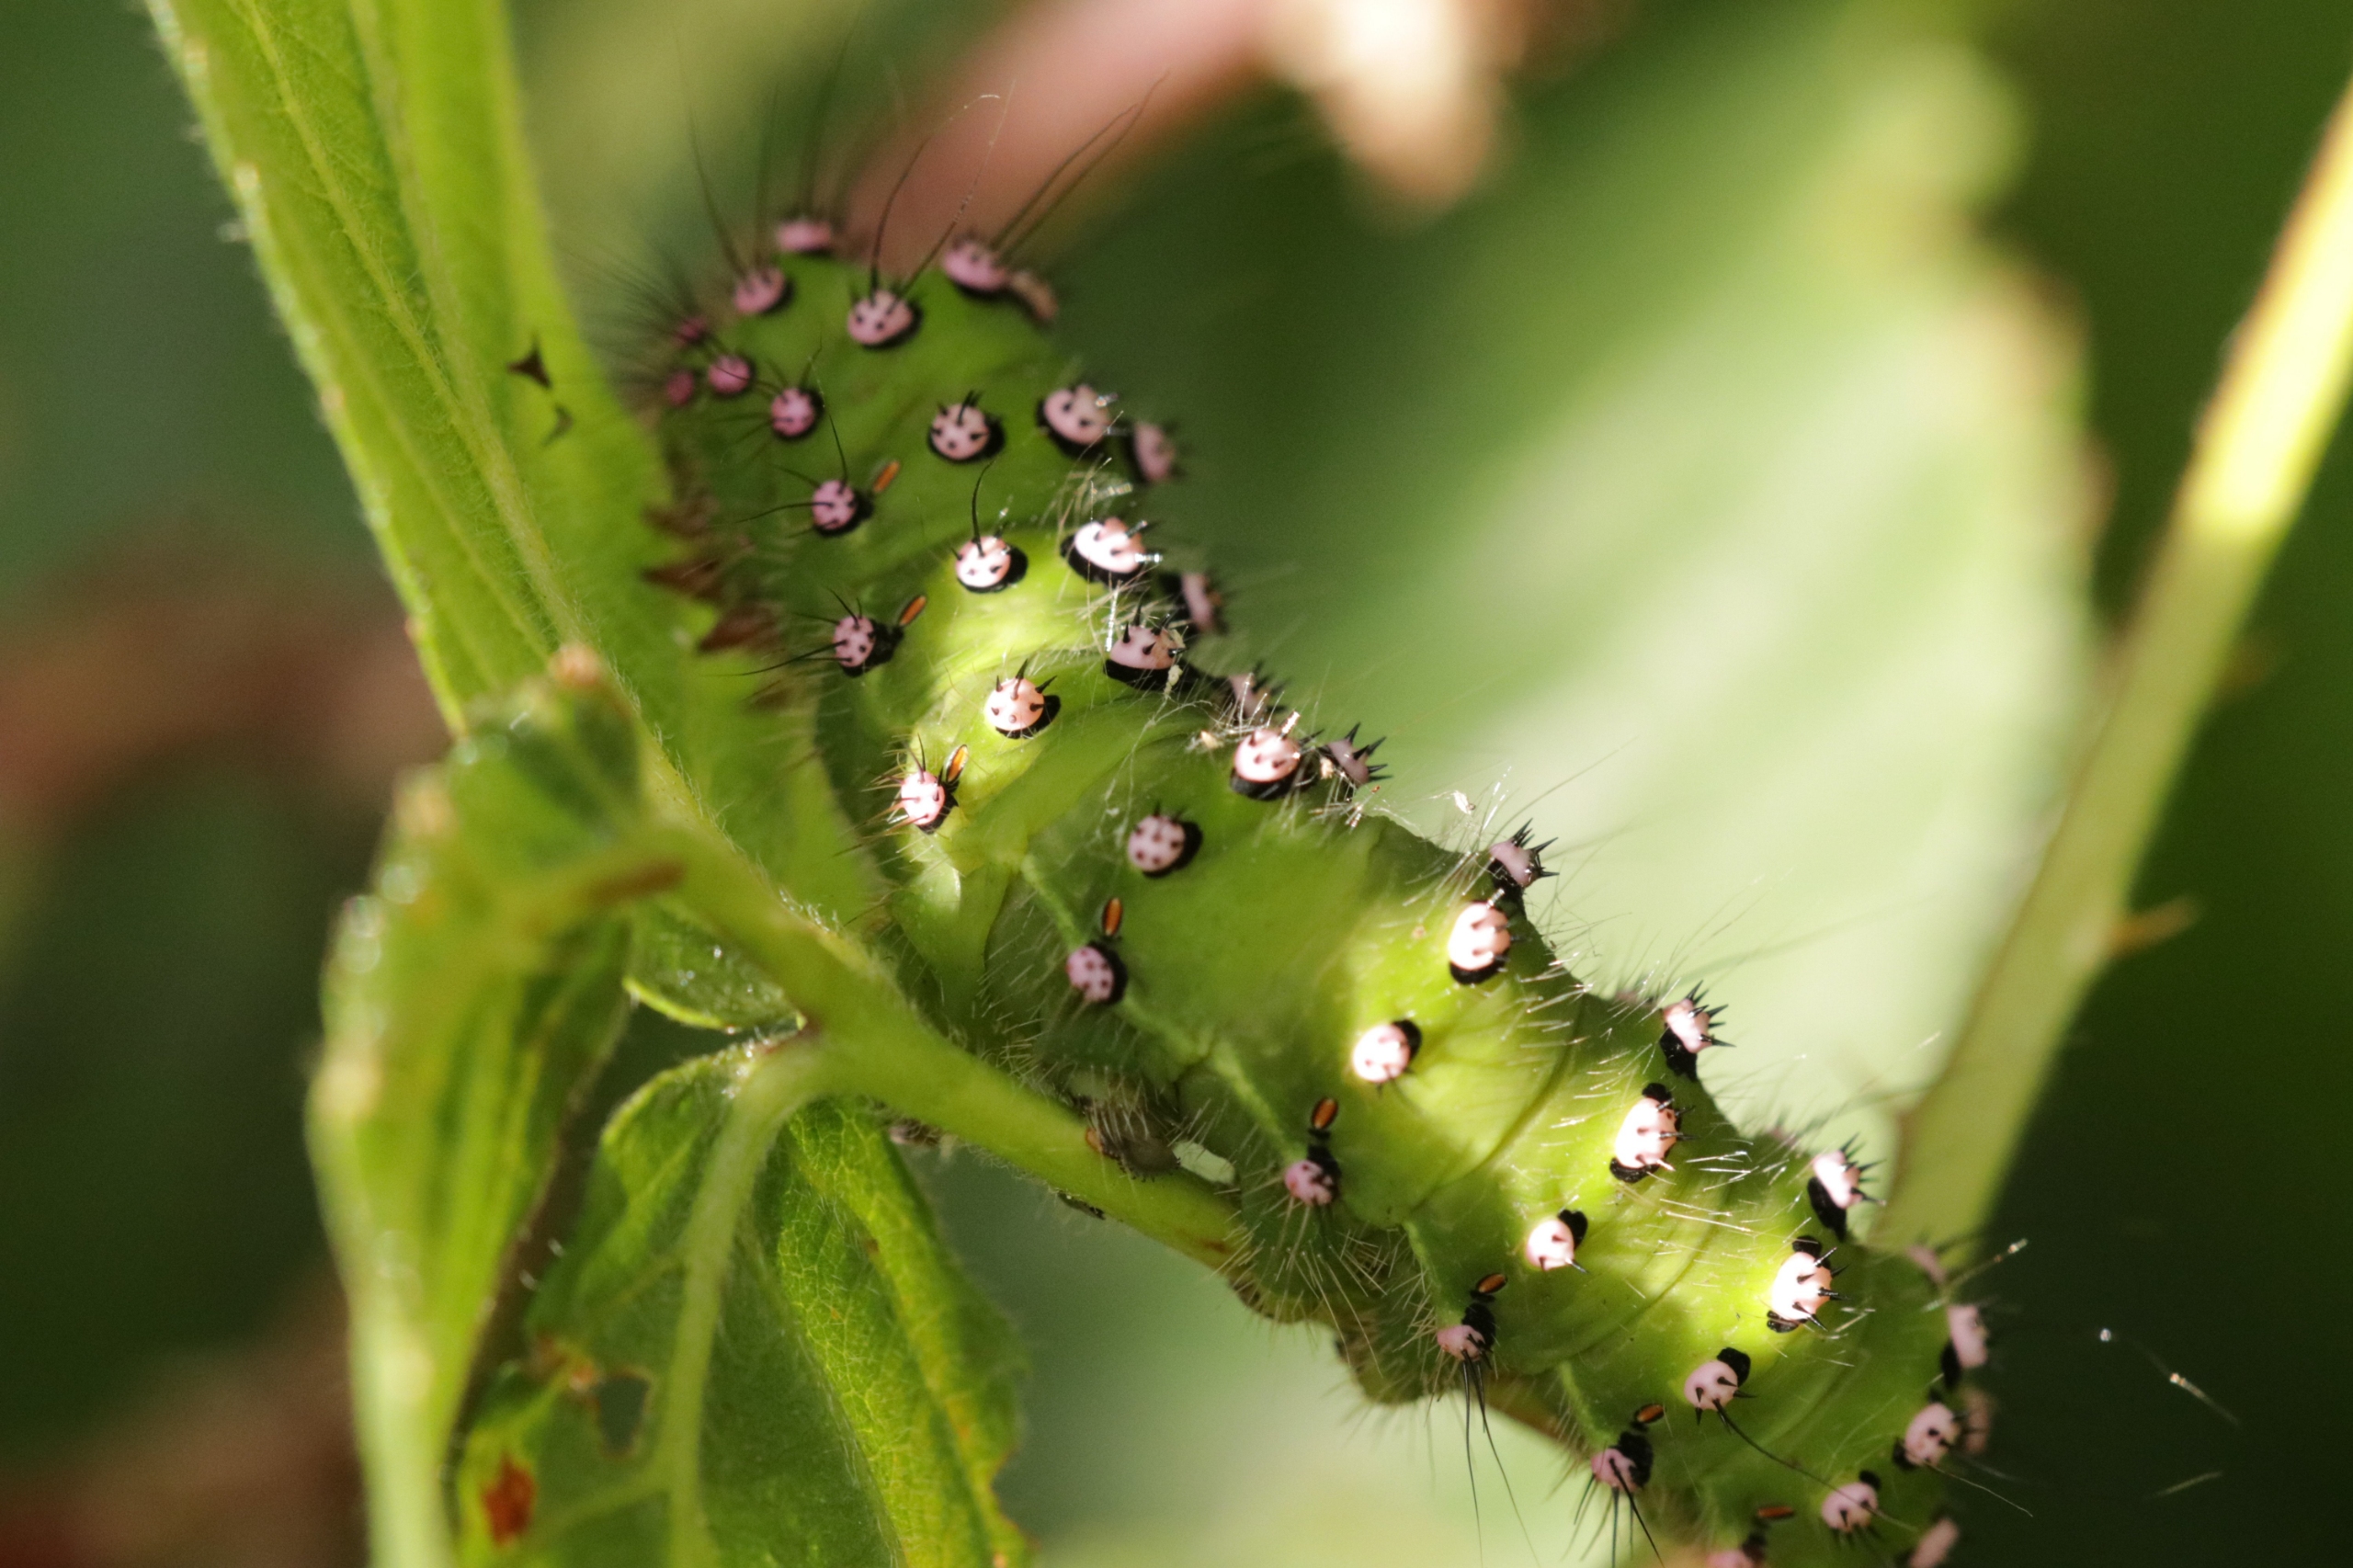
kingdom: Animalia
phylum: Arthropoda
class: Insecta
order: Lepidoptera
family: Saturniidae
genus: Saturnia
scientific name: Saturnia pavonia
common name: Lille natpåfugleøje
